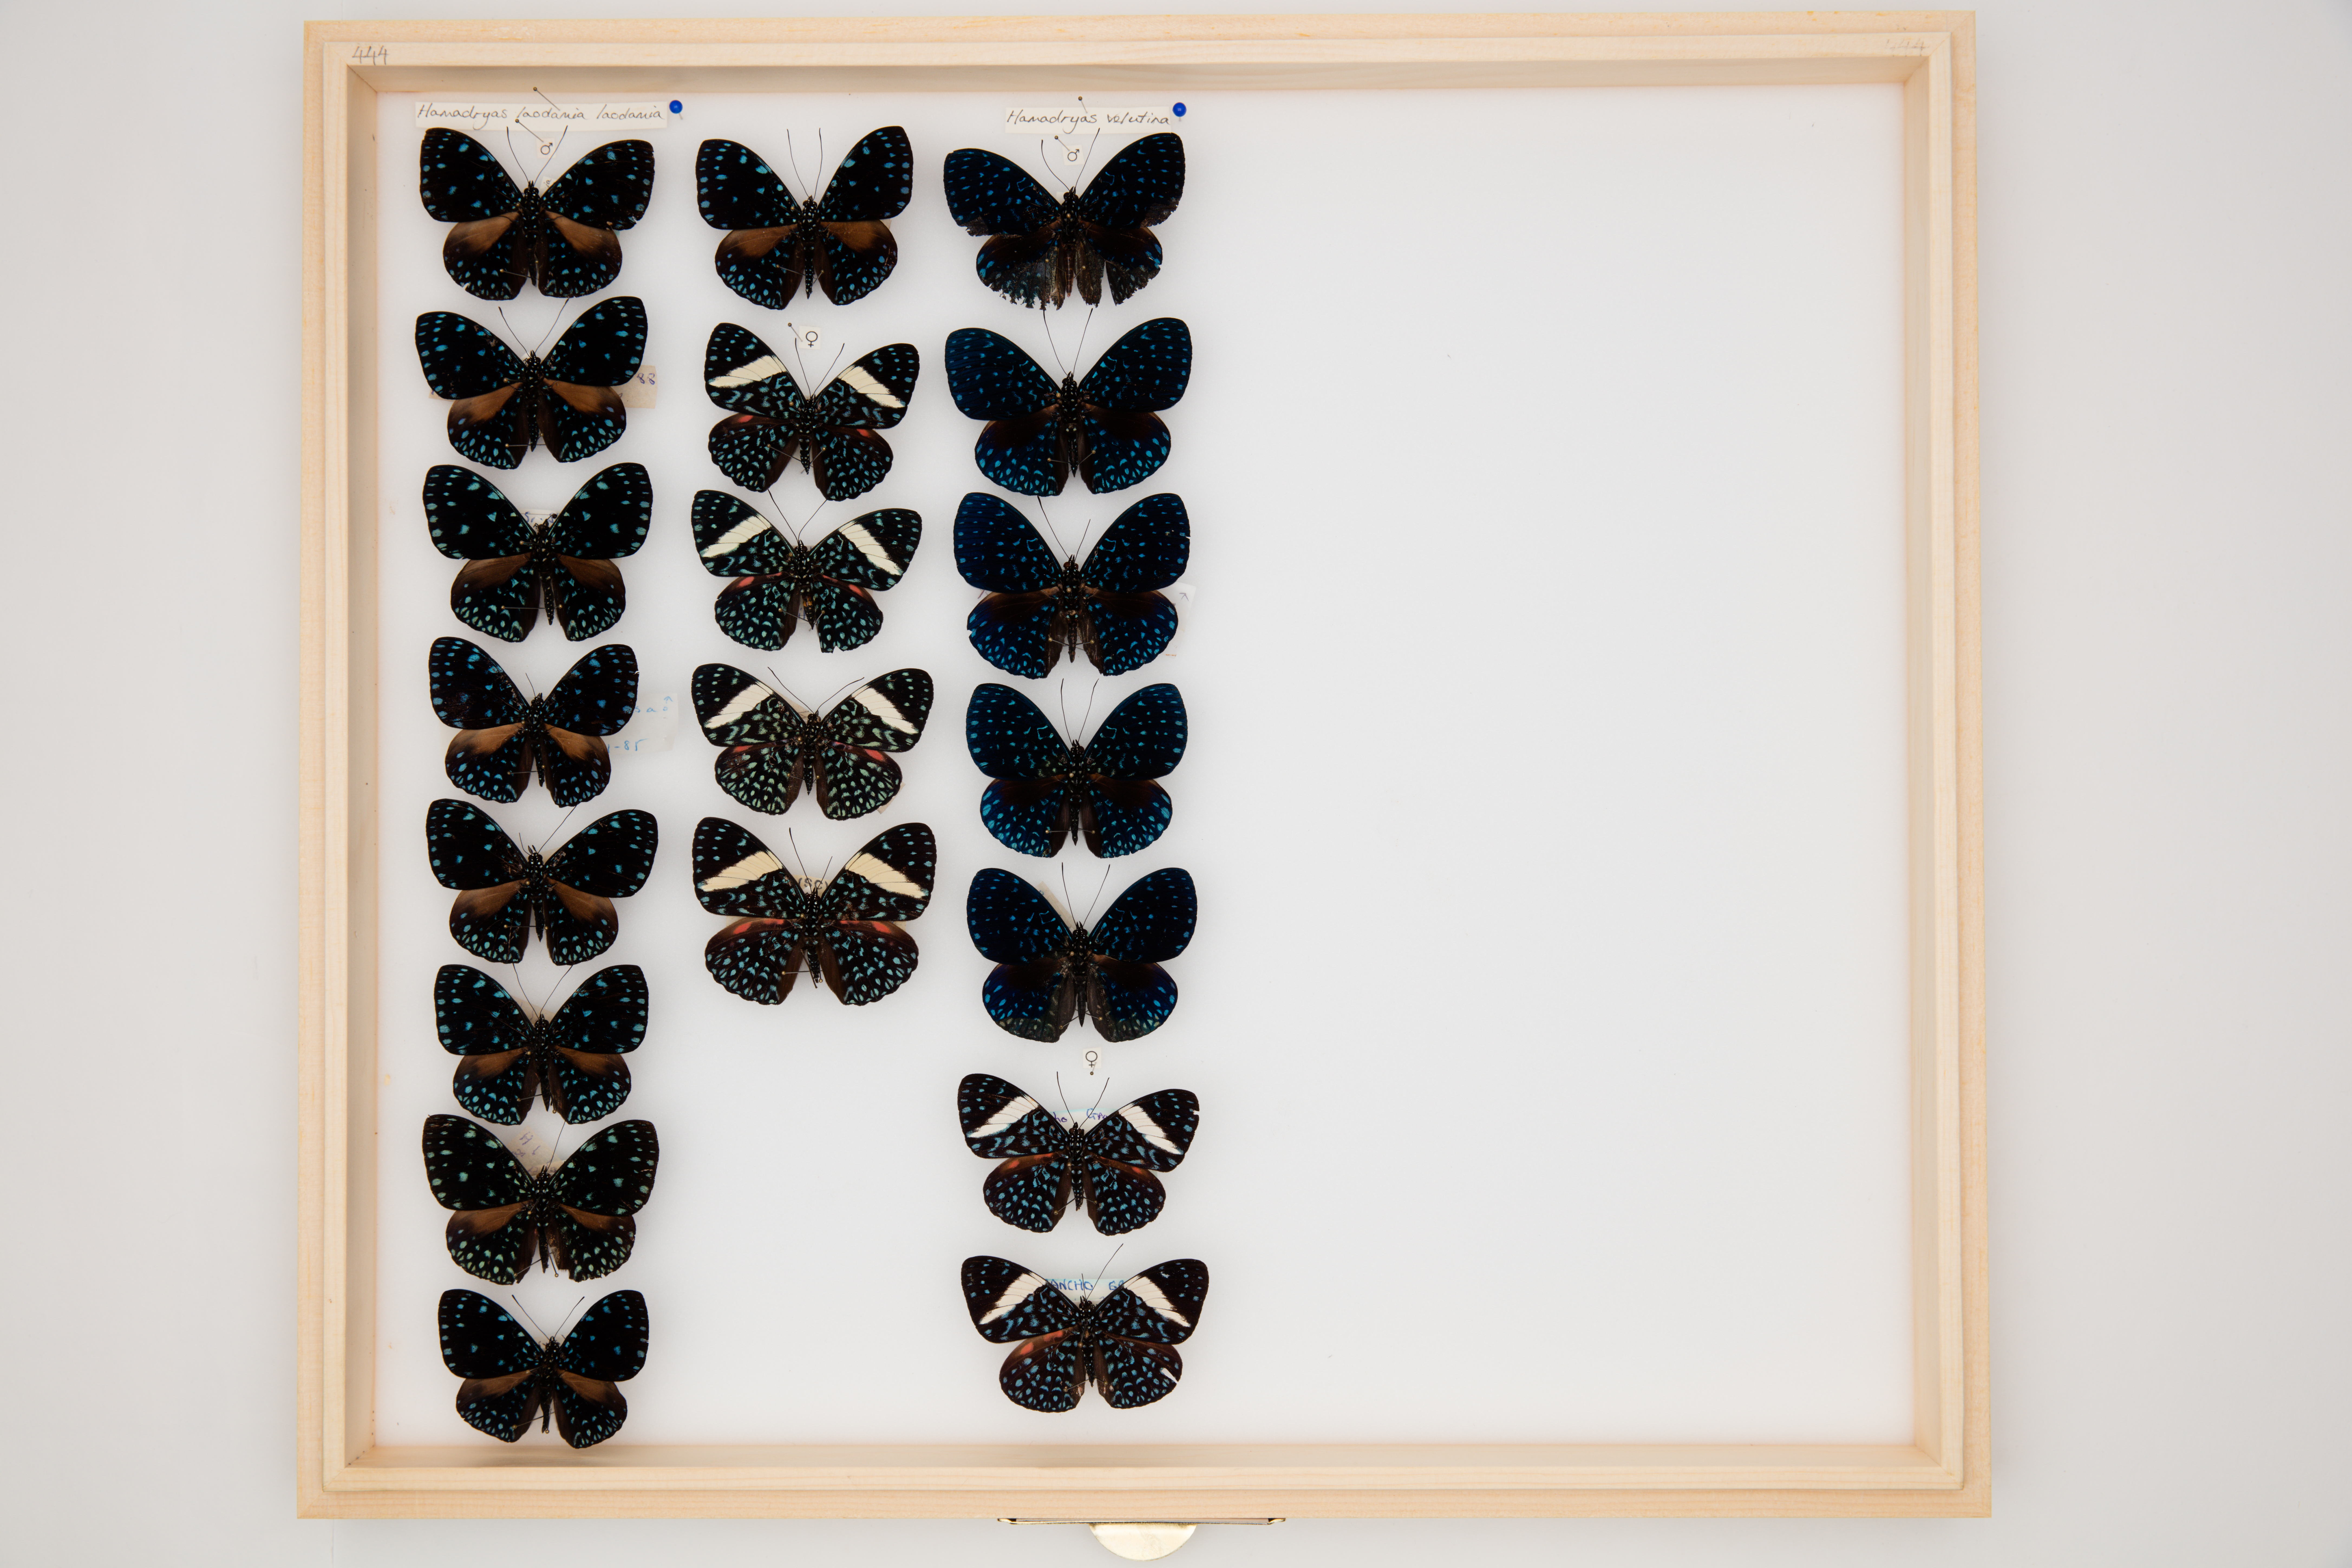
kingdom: Animalia
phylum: Arthropoda
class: Insecta
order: Lepidoptera
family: Nymphalidae
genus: Hamadryas
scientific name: Hamadryas laodamia
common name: Starry night cracker
